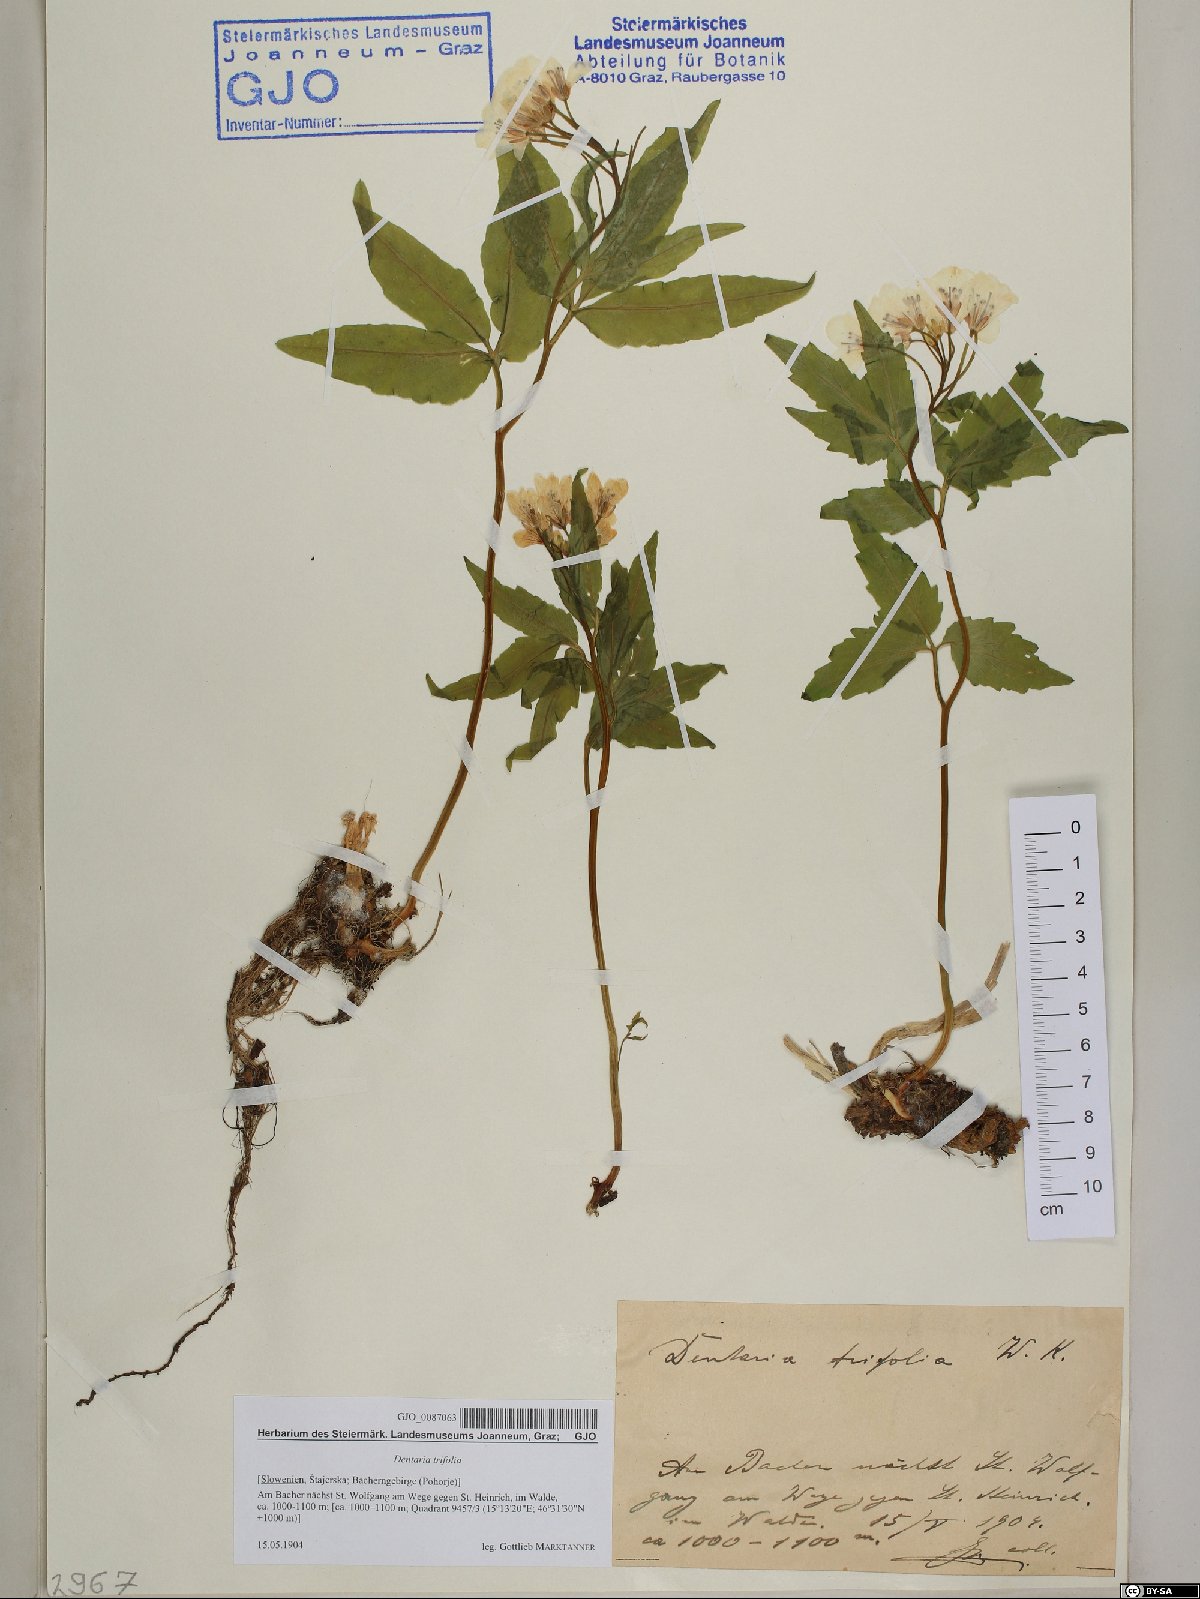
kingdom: Plantae
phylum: Tracheophyta
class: Magnoliopsida
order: Brassicales
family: Brassicaceae
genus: Cardamine
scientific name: Cardamine waldsteinii
